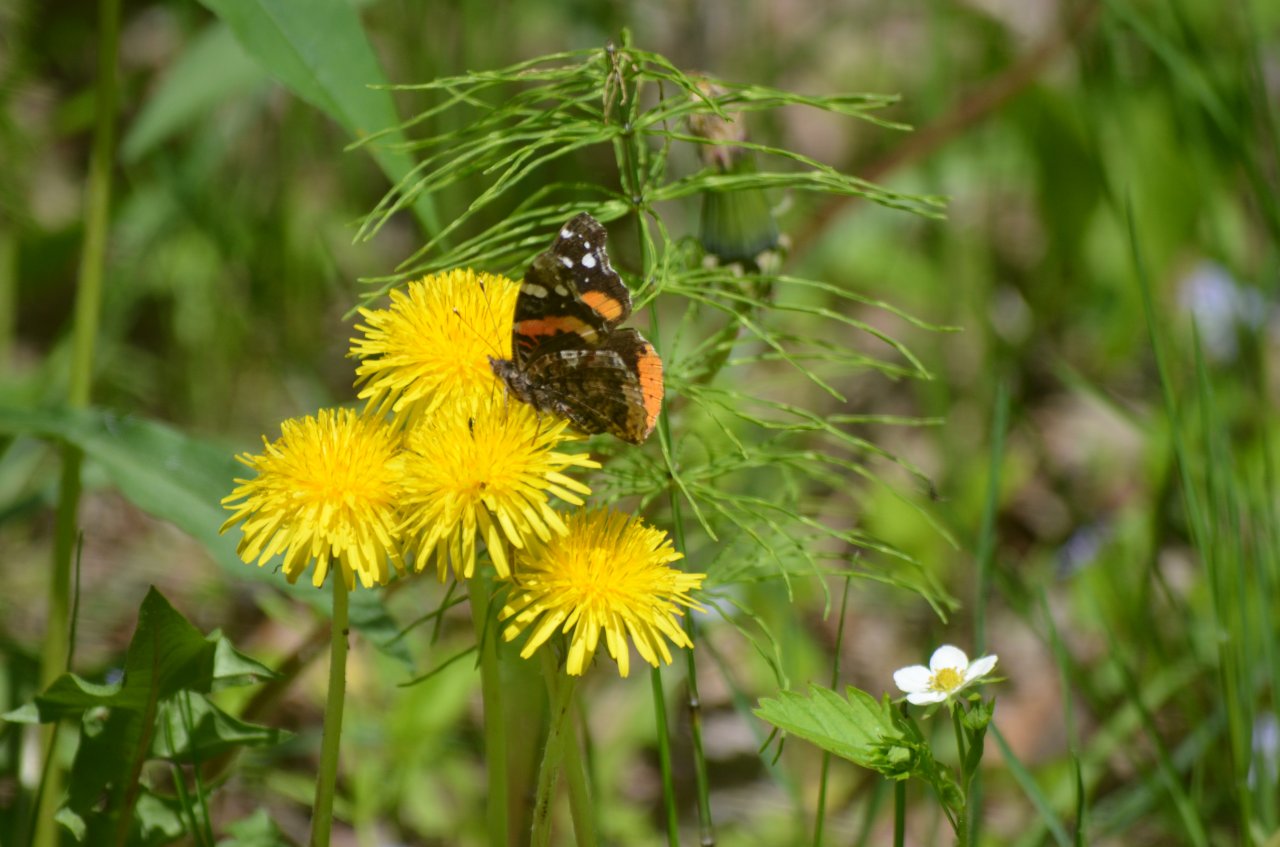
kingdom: Animalia
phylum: Arthropoda
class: Insecta
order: Lepidoptera
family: Nymphalidae
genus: Vanessa
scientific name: Vanessa atalanta
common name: Red Admiral
